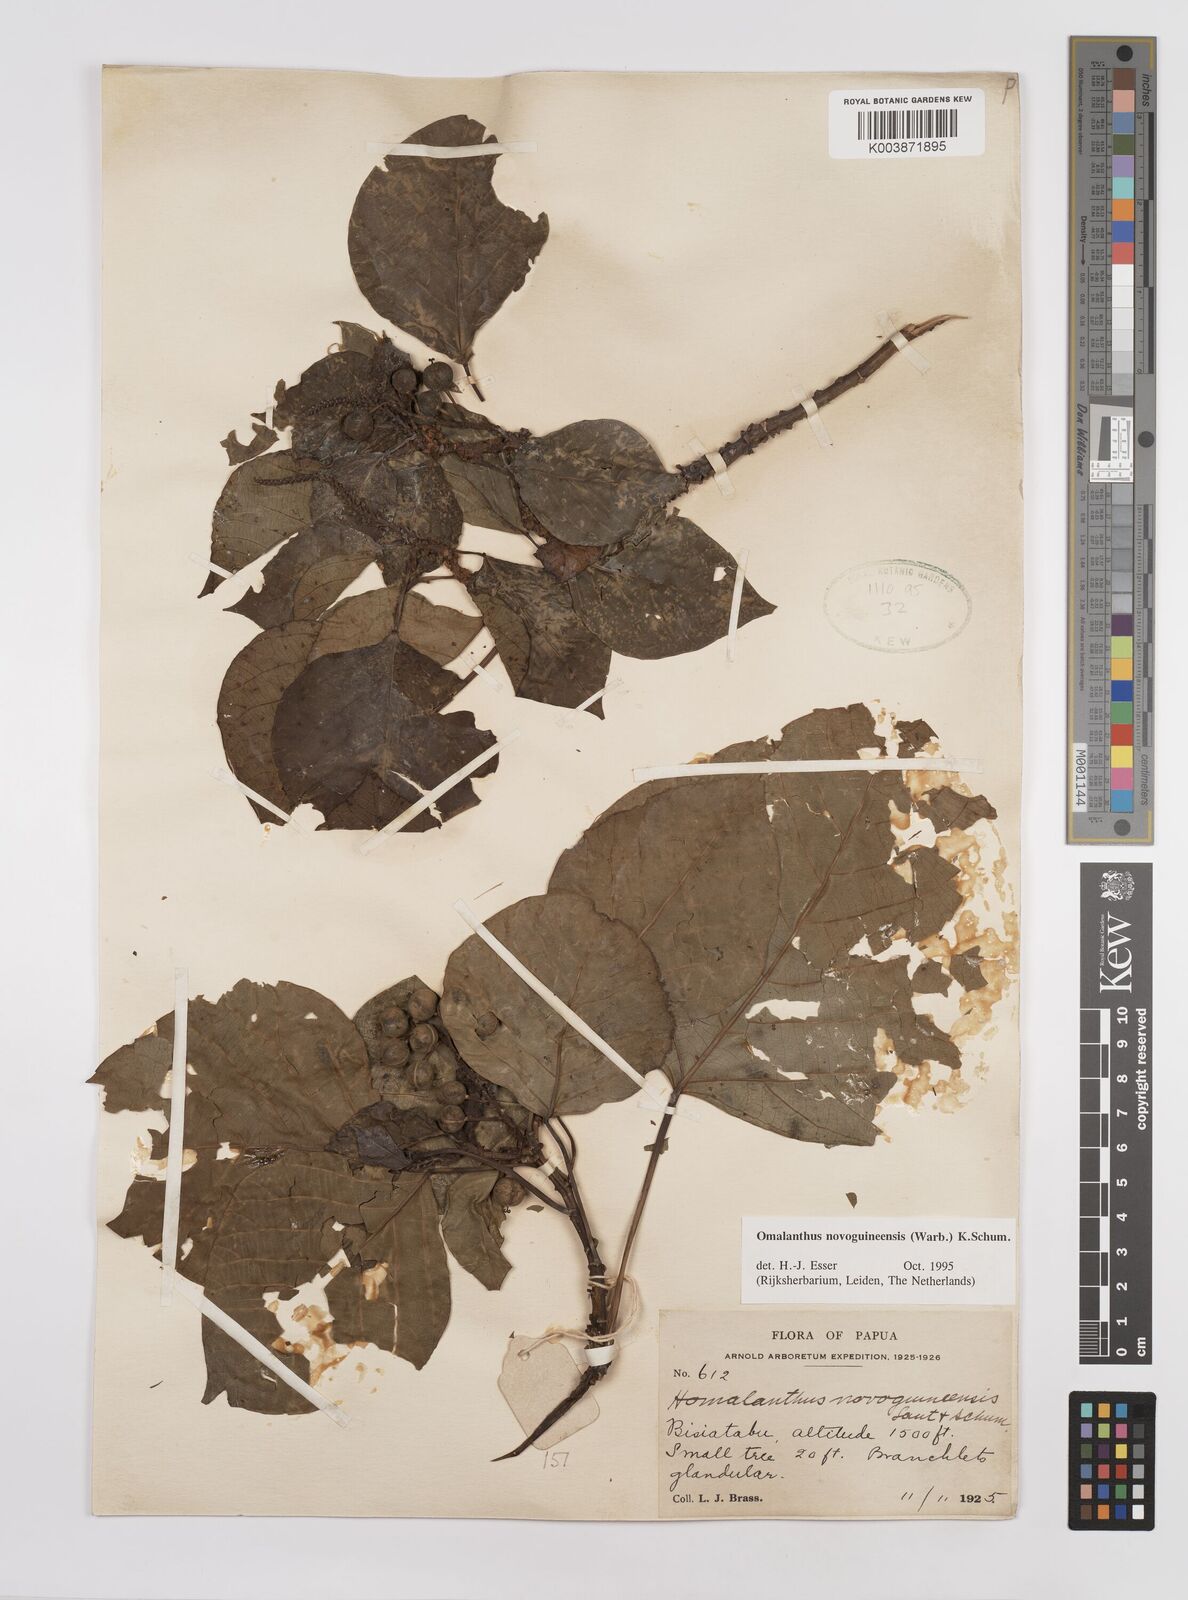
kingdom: Plantae
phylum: Tracheophyta
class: Magnoliopsida
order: Malpighiales
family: Euphorbiaceae
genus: Homalanthus
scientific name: Homalanthus novoguineensis
